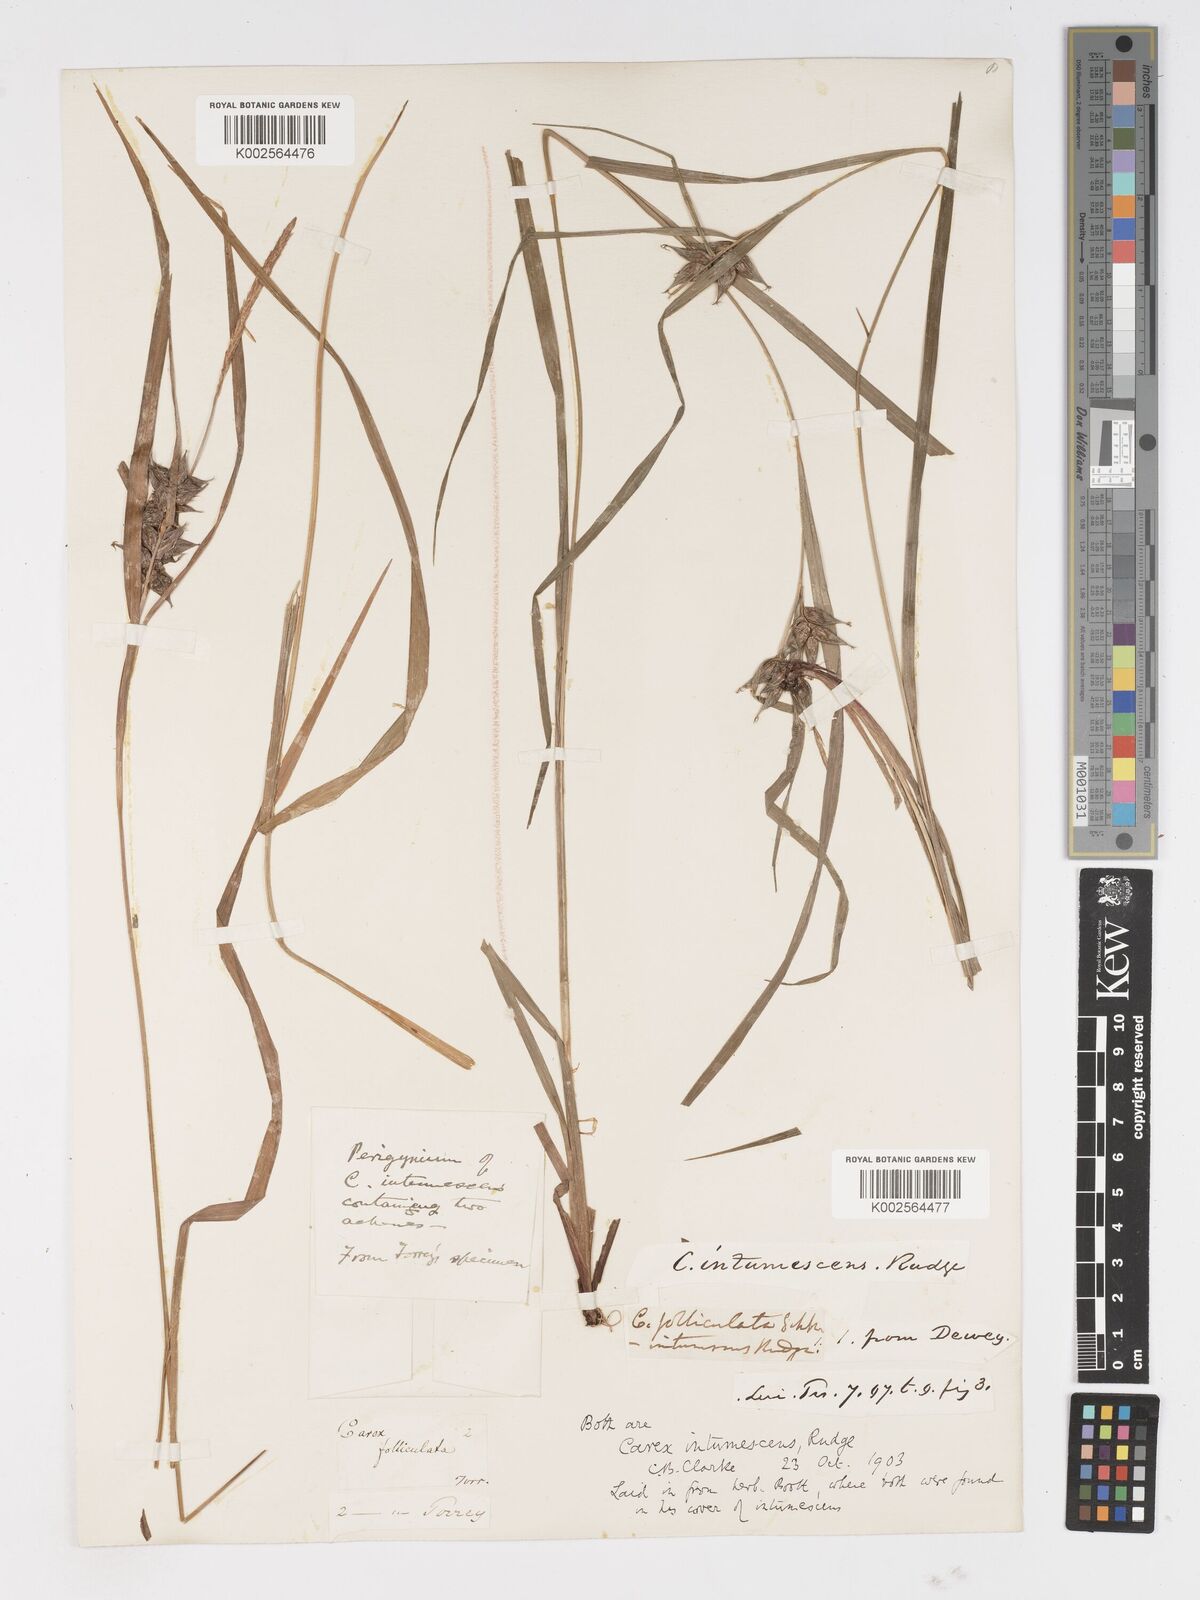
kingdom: Plantae
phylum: Tracheophyta
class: Liliopsida
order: Poales
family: Cyperaceae
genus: Carex
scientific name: Carex intumescens
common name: Greater bladder sedge
